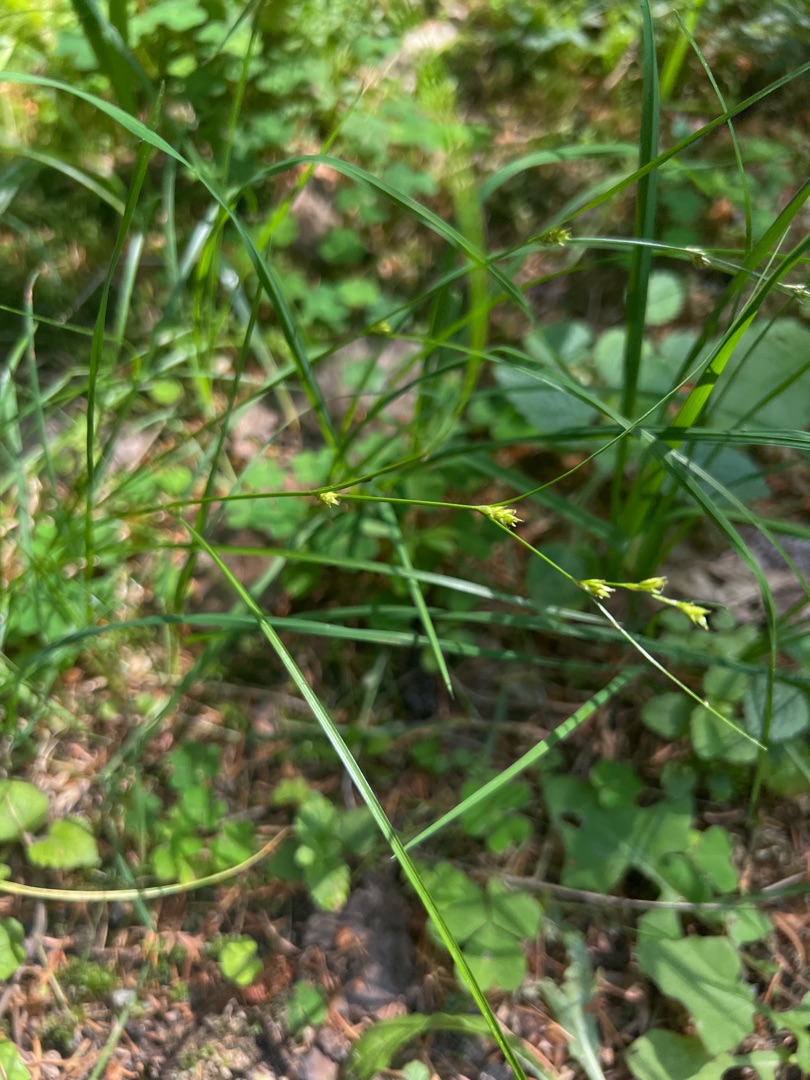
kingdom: Plantae
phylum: Tracheophyta
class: Liliopsida
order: Poales
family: Cyperaceae
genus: Carex
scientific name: Carex remota
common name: Akselblomstret star
